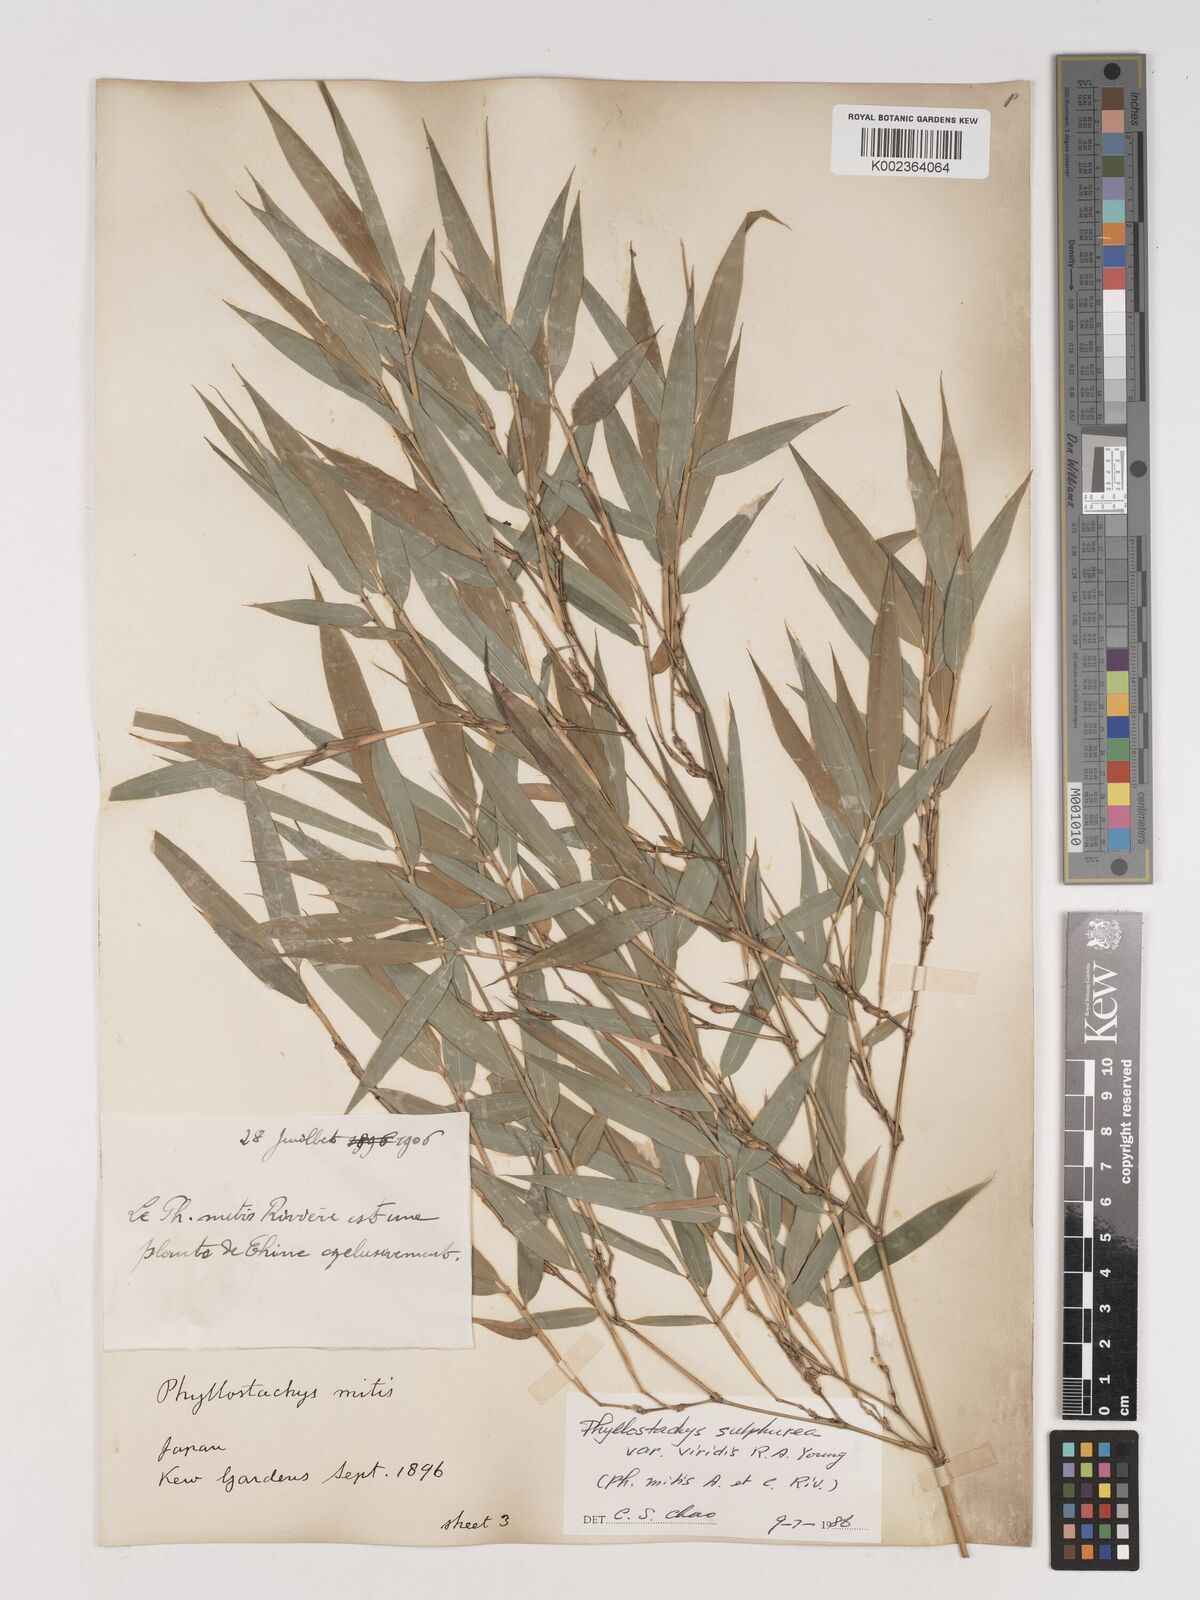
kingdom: Plantae
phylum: Tracheophyta
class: Liliopsida
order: Poales
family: Poaceae
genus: Phyllostachys
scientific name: Phyllostachys sulphurea
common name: Sulphur bamboo
